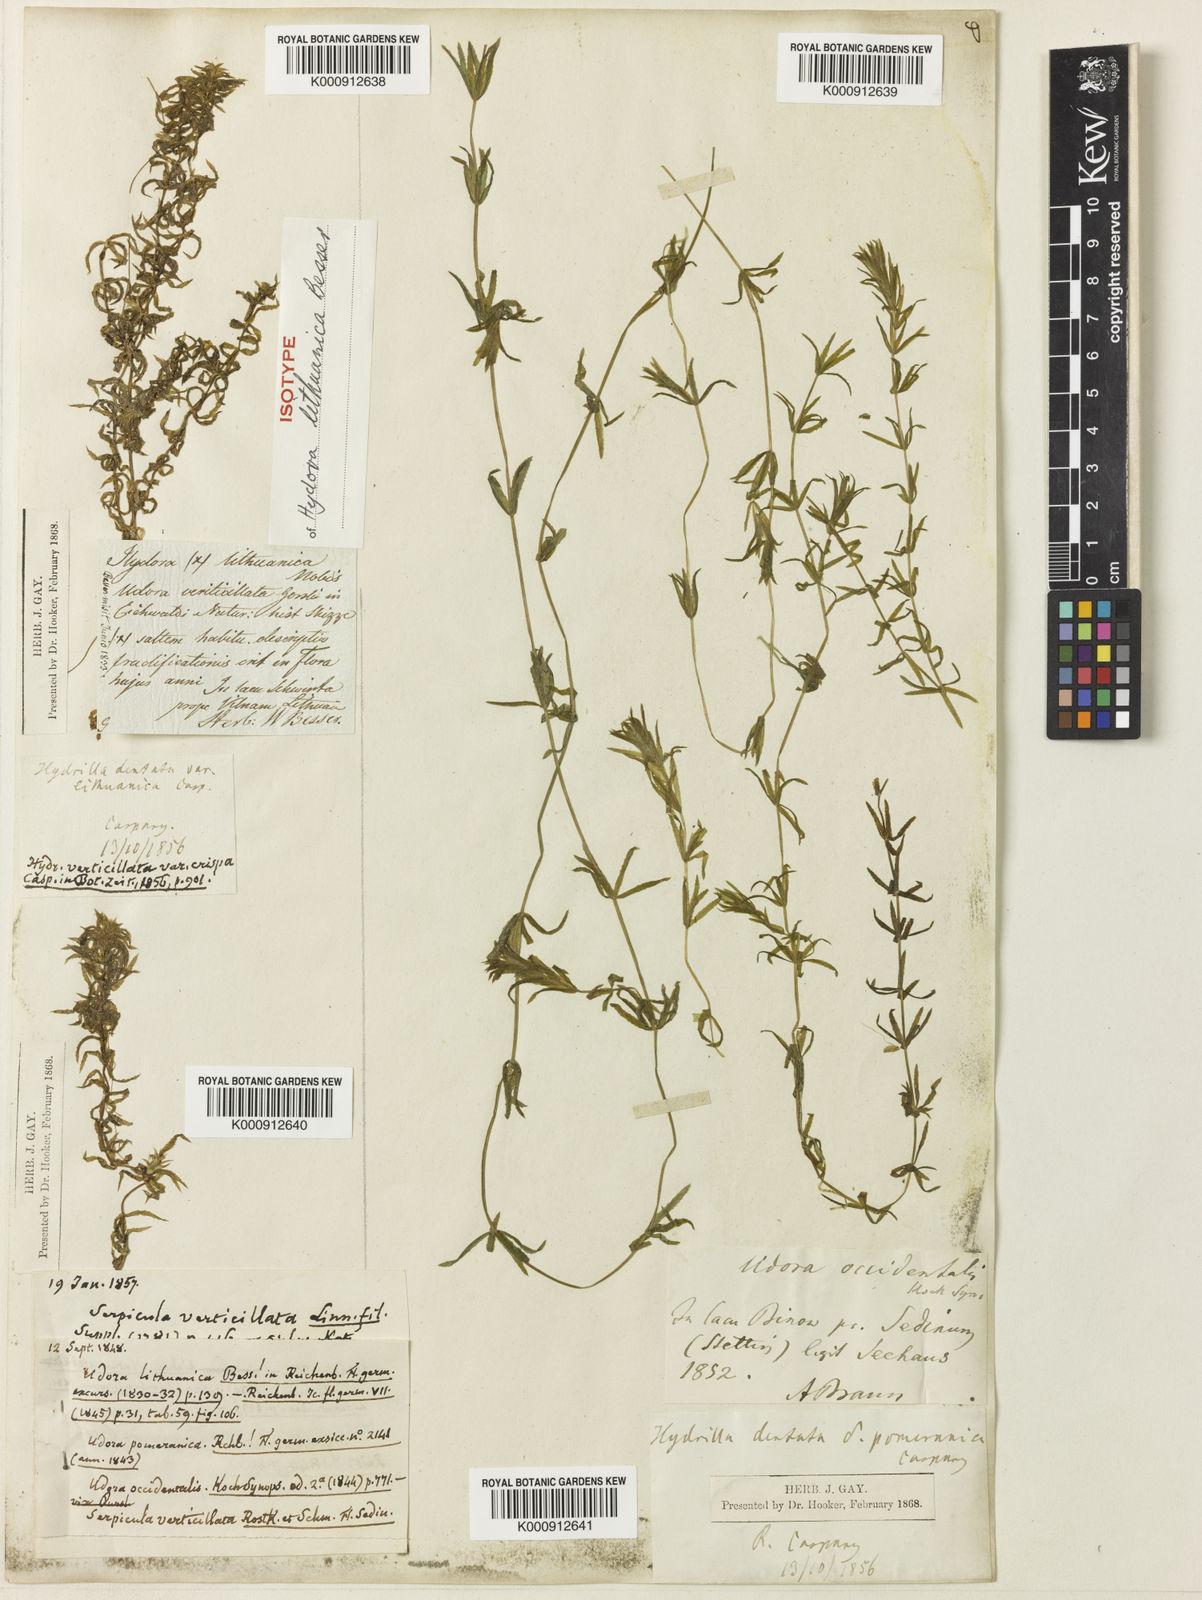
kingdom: Plantae
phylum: Tracheophyta
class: Liliopsida
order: Alismatales
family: Hydrocharitaceae
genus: Hydrilla
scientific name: Hydrilla verticillata
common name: Florida-elodea
